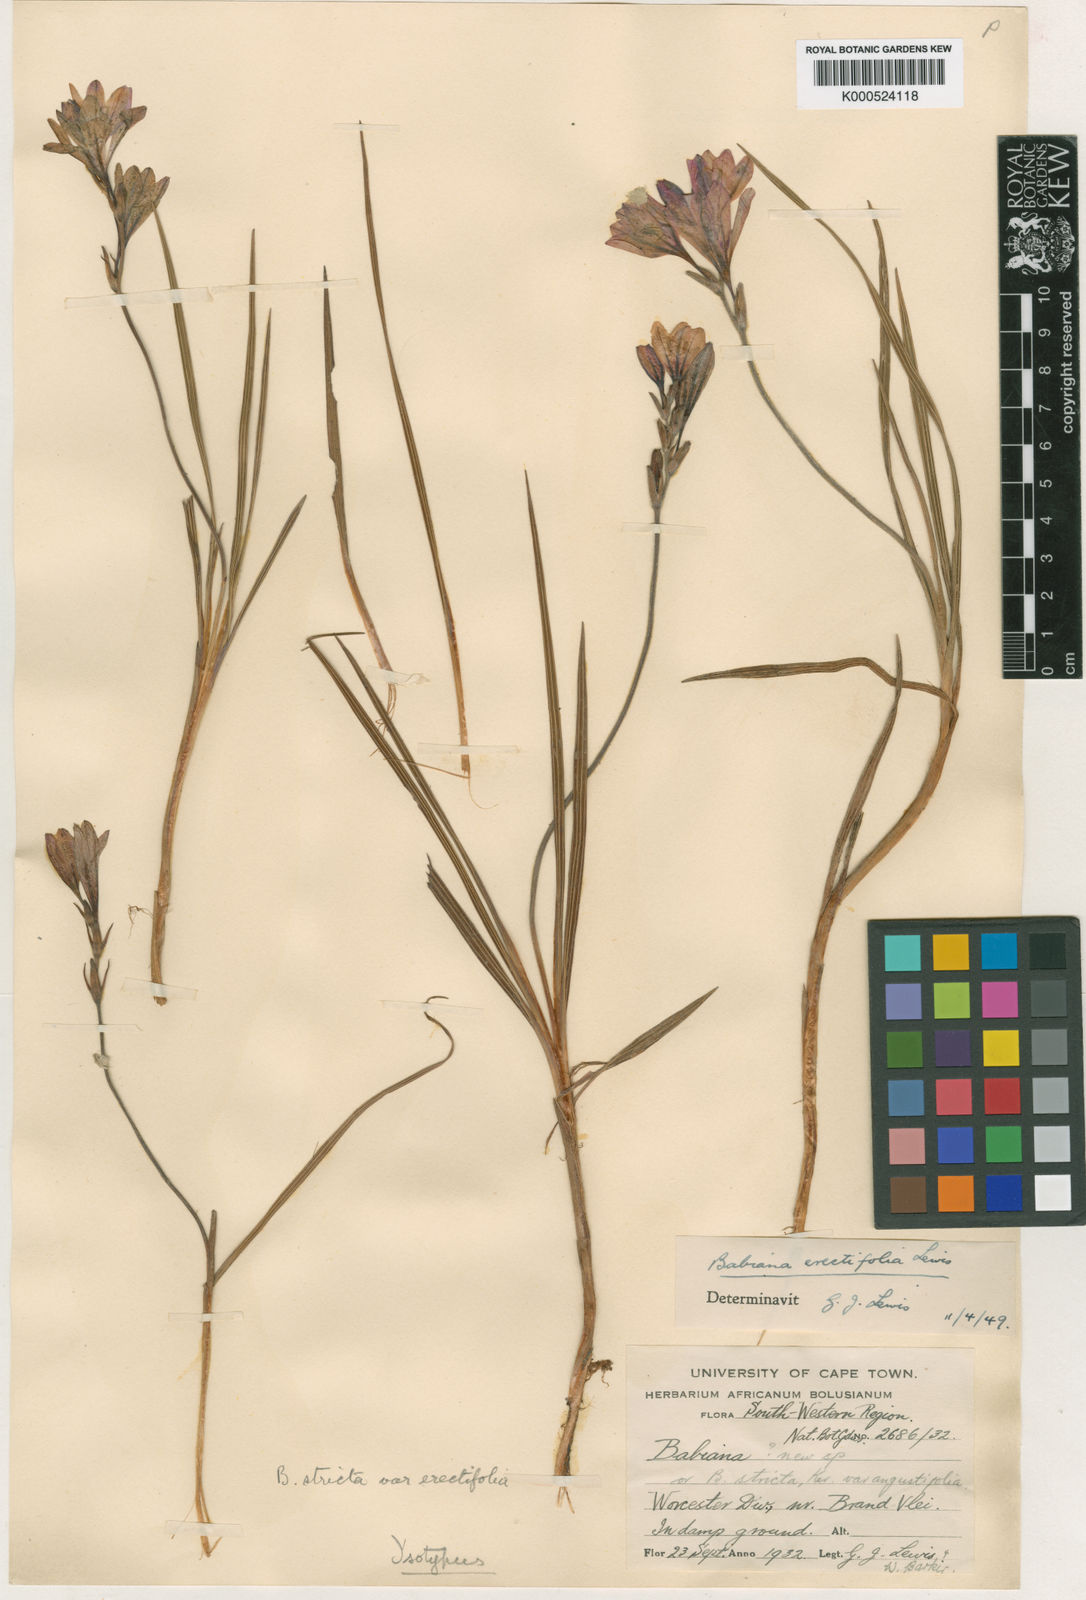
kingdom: Plantae
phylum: Tracheophyta
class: Liliopsida
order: Asparagales
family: Iridaceae
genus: Babiana
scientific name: Babiana nervosa
